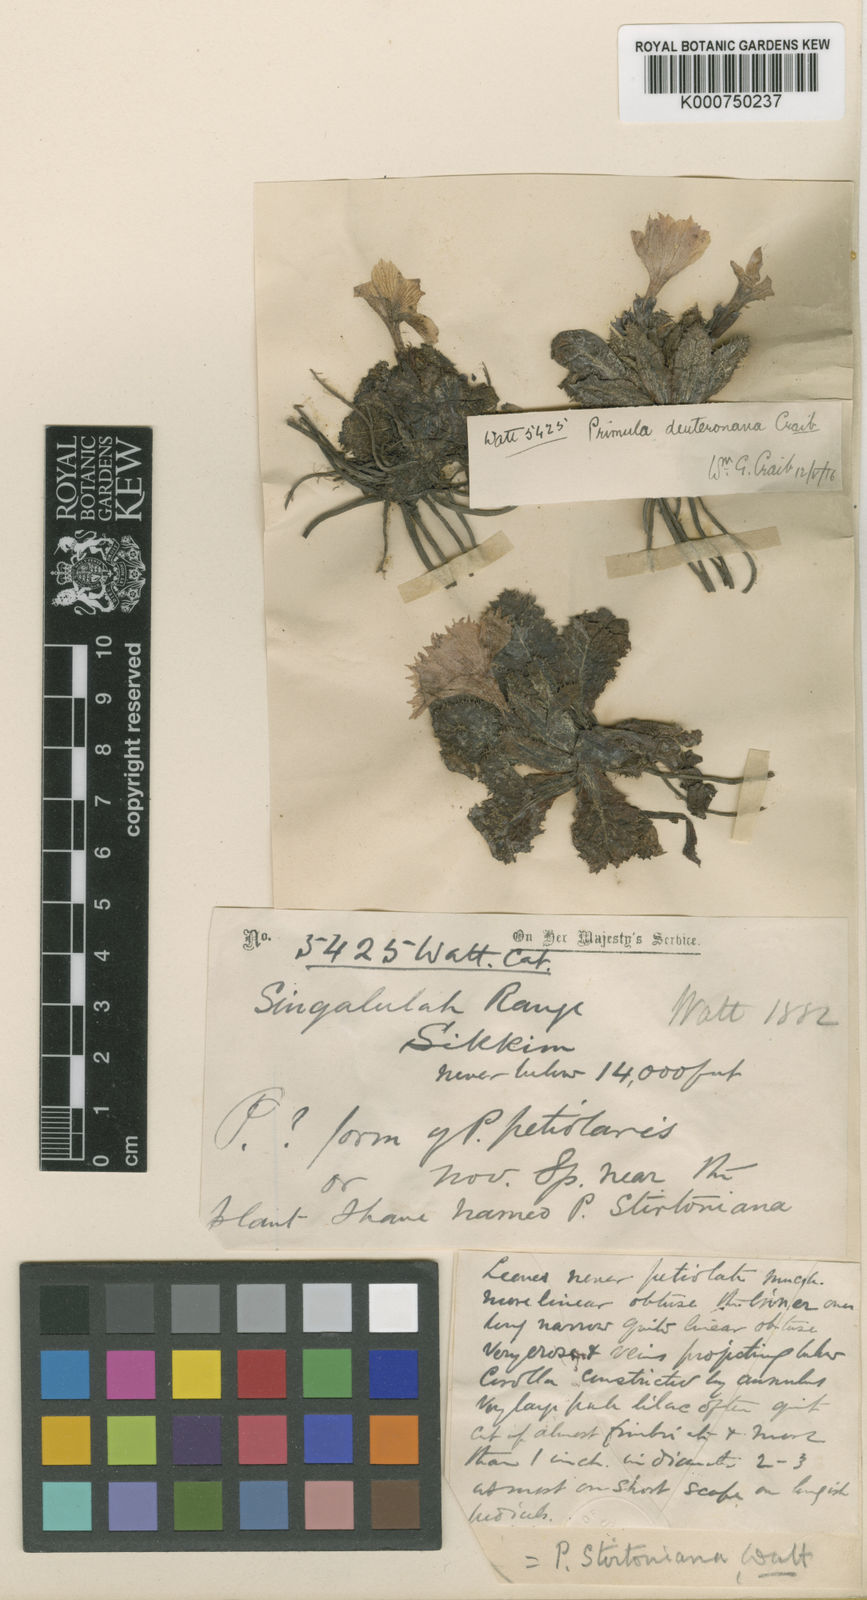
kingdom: Plantae
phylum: Tracheophyta
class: Magnoliopsida
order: Ericales
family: Primulaceae
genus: Primula
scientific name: Primula deuteronana
